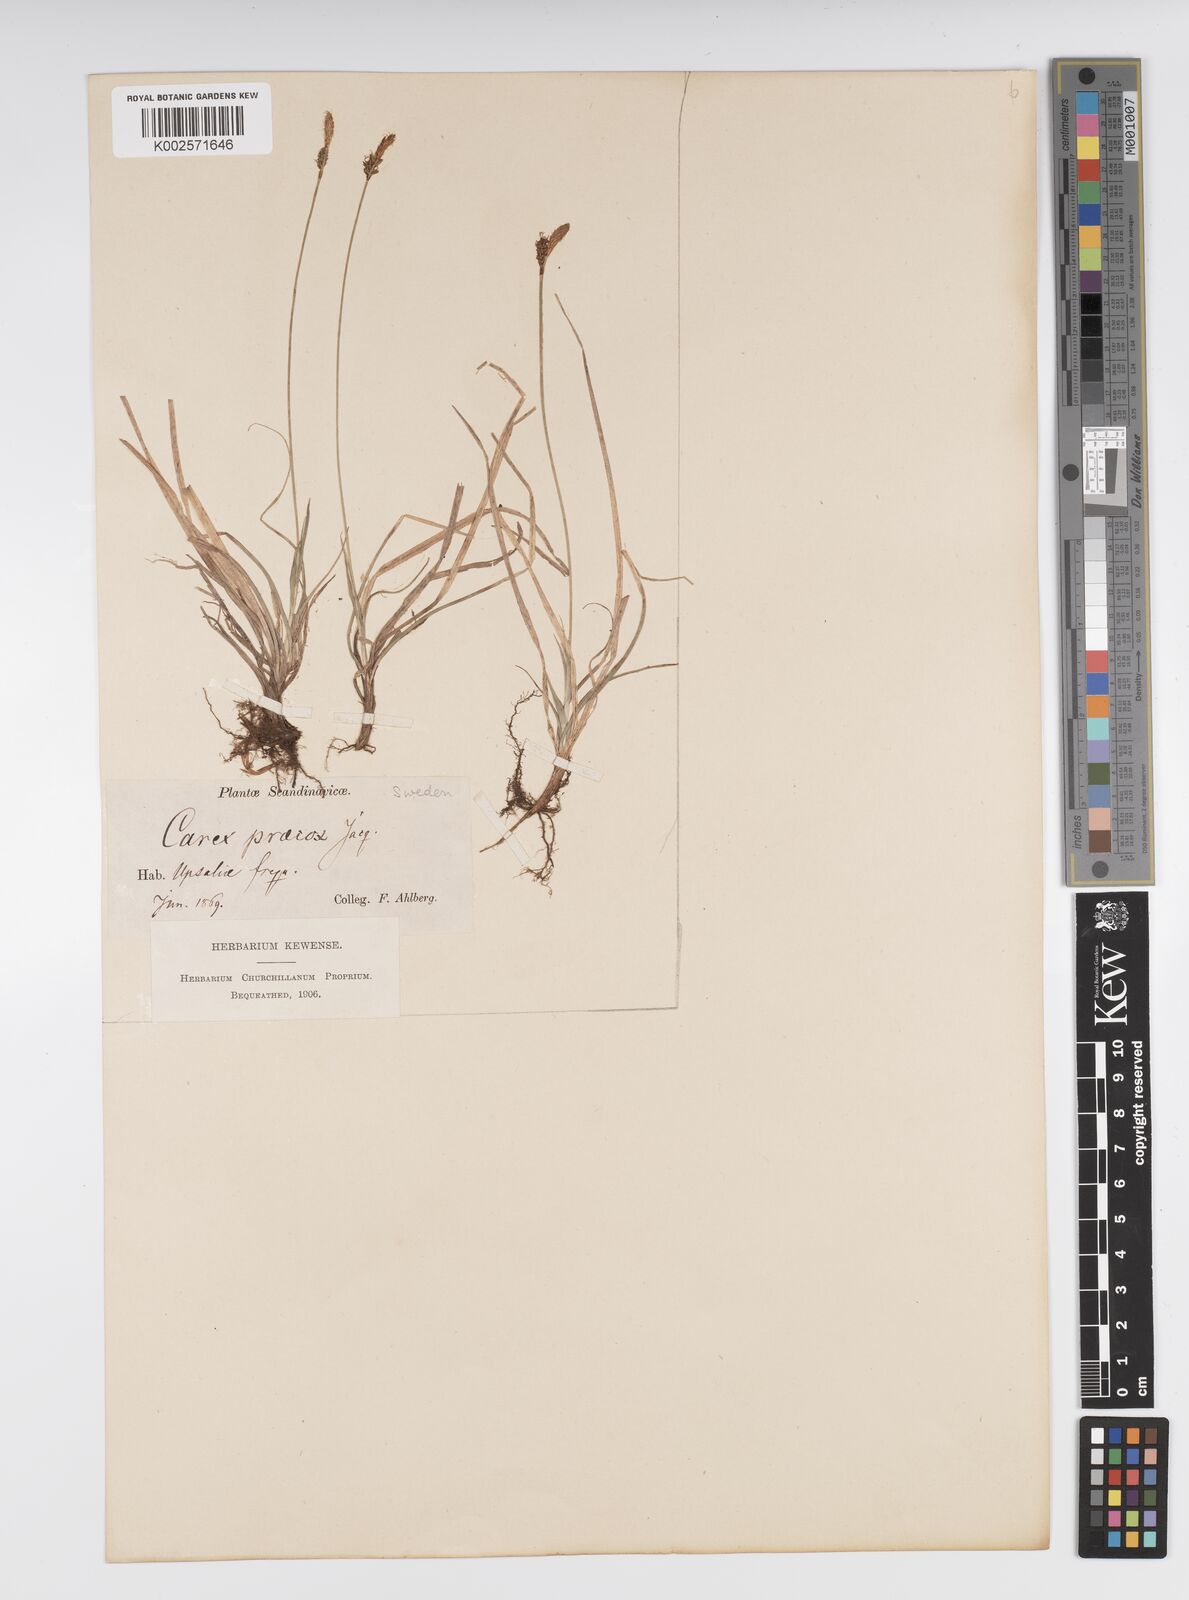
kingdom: Plantae
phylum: Tracheophyta
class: Liliopsida
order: Poales
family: Cyperaceae
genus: Carex
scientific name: Carex caryophyllea
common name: Spring sedge
